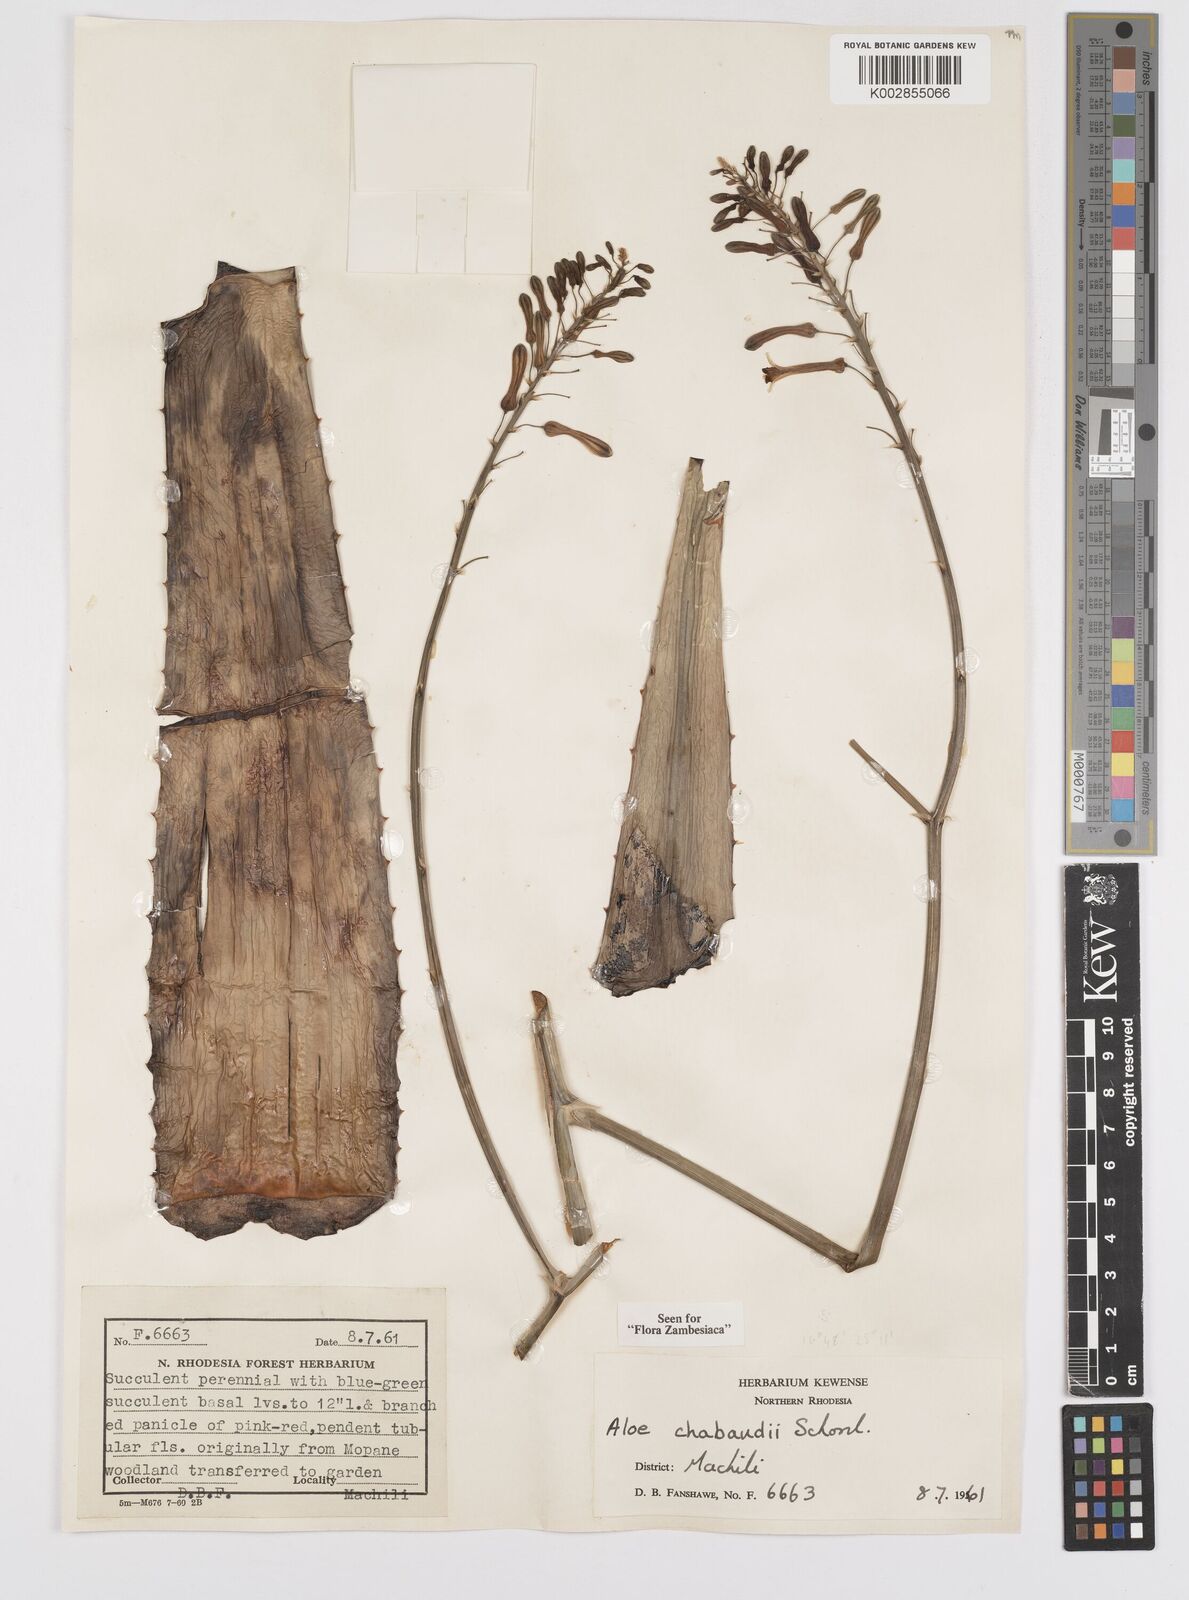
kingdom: Plantae
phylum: Tracheophyta
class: Liliopsida
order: Asparagales
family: Asphodelaceae
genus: Aloe
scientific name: Aloe chabaudii
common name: Chabaud's aloe
